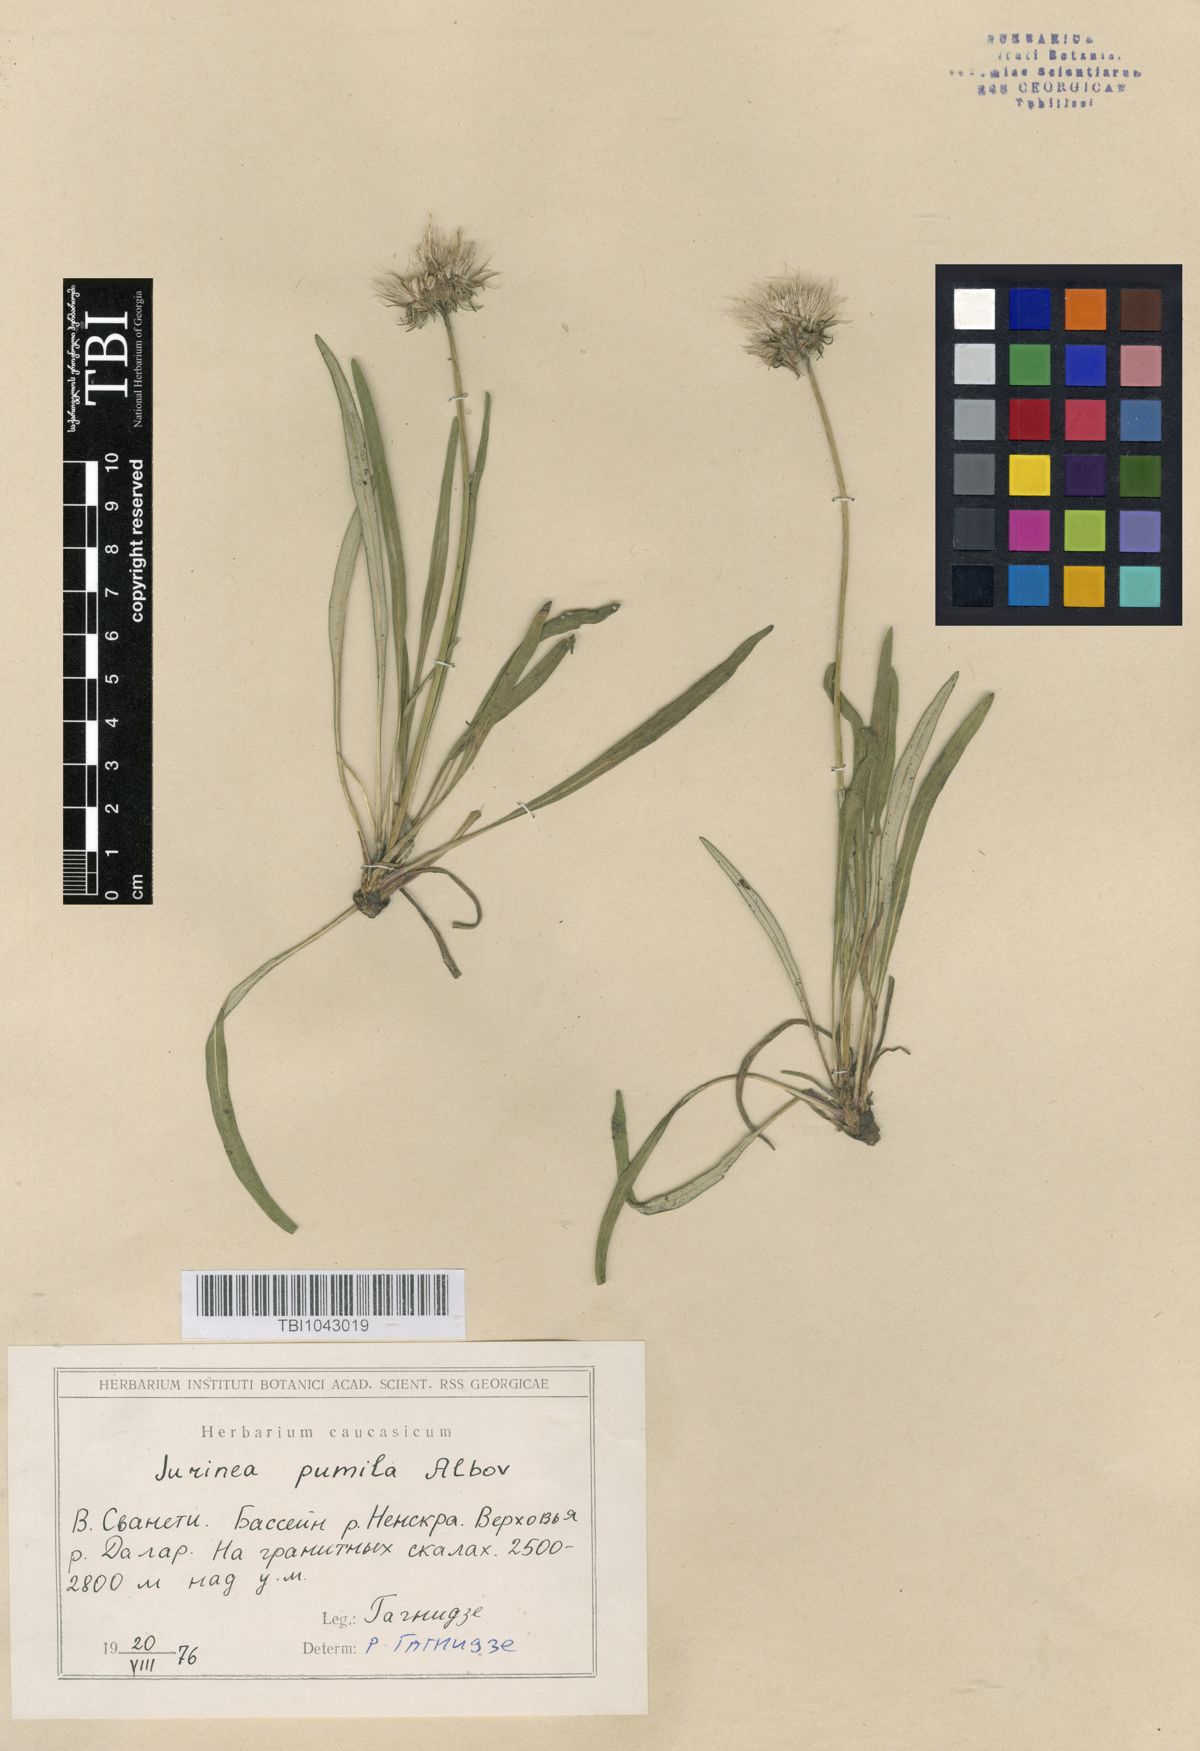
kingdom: Plantae
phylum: Tracheophyta
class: Magnoliopsida
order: Asterales
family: Asteraceae
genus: Jurinea
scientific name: Jurinea pumila
